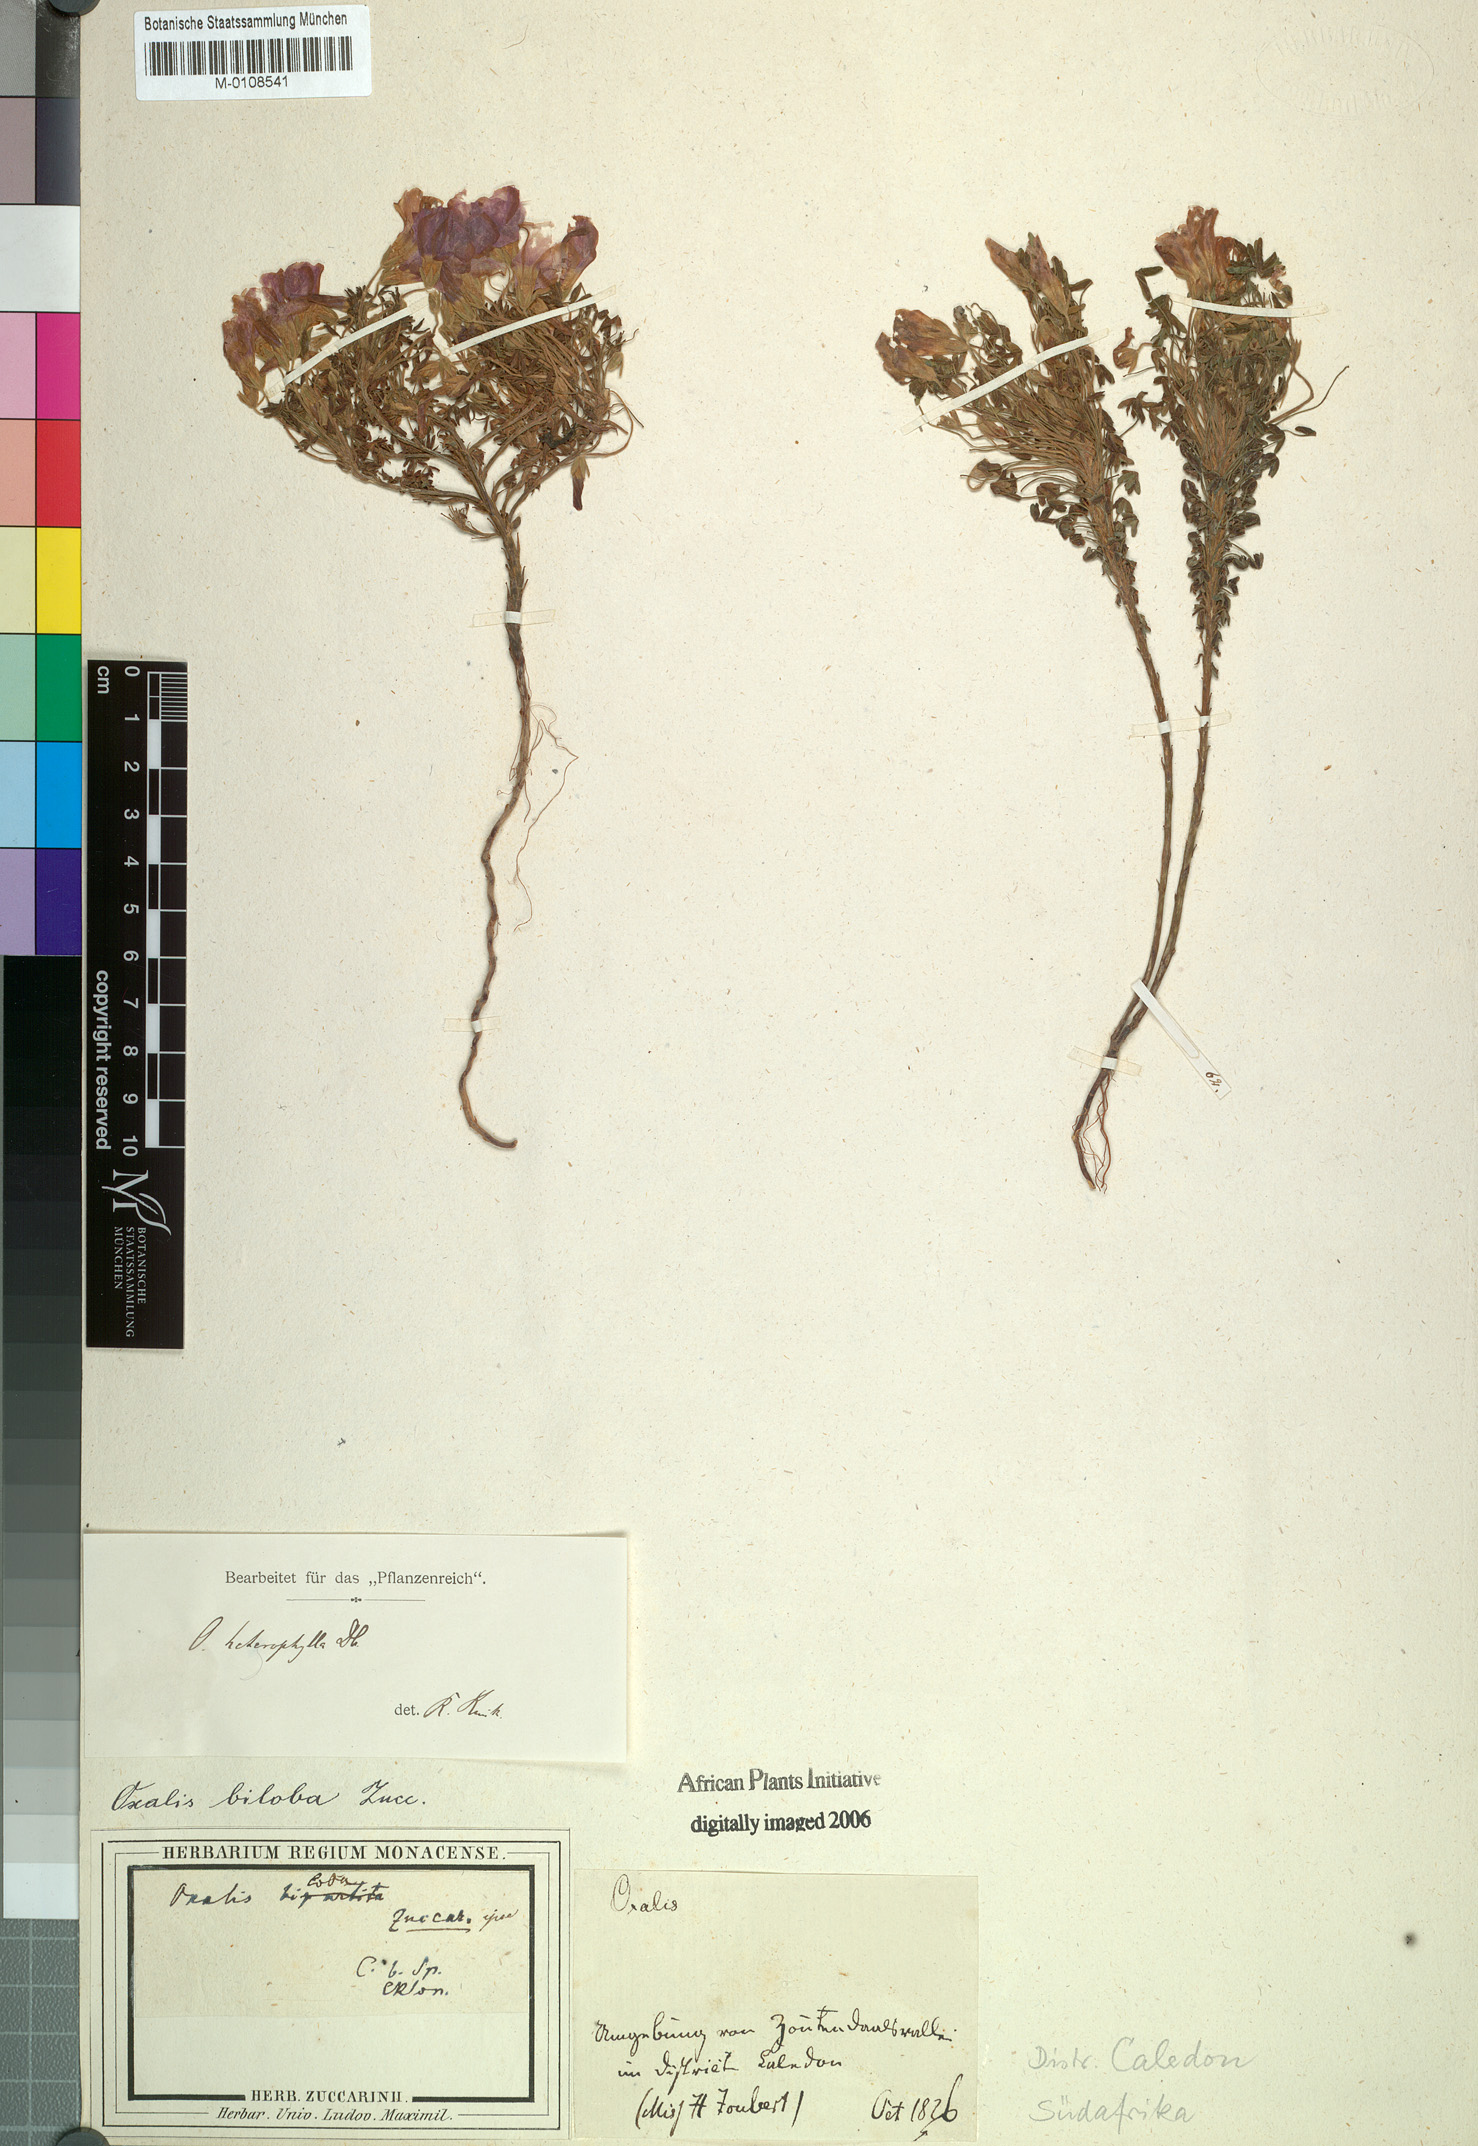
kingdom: Plantae
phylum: Tracheophyta
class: Magnoliopsida
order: Oxalidales
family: Oxalidaceae
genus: Oxalis
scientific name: Oxalis heterophylla
